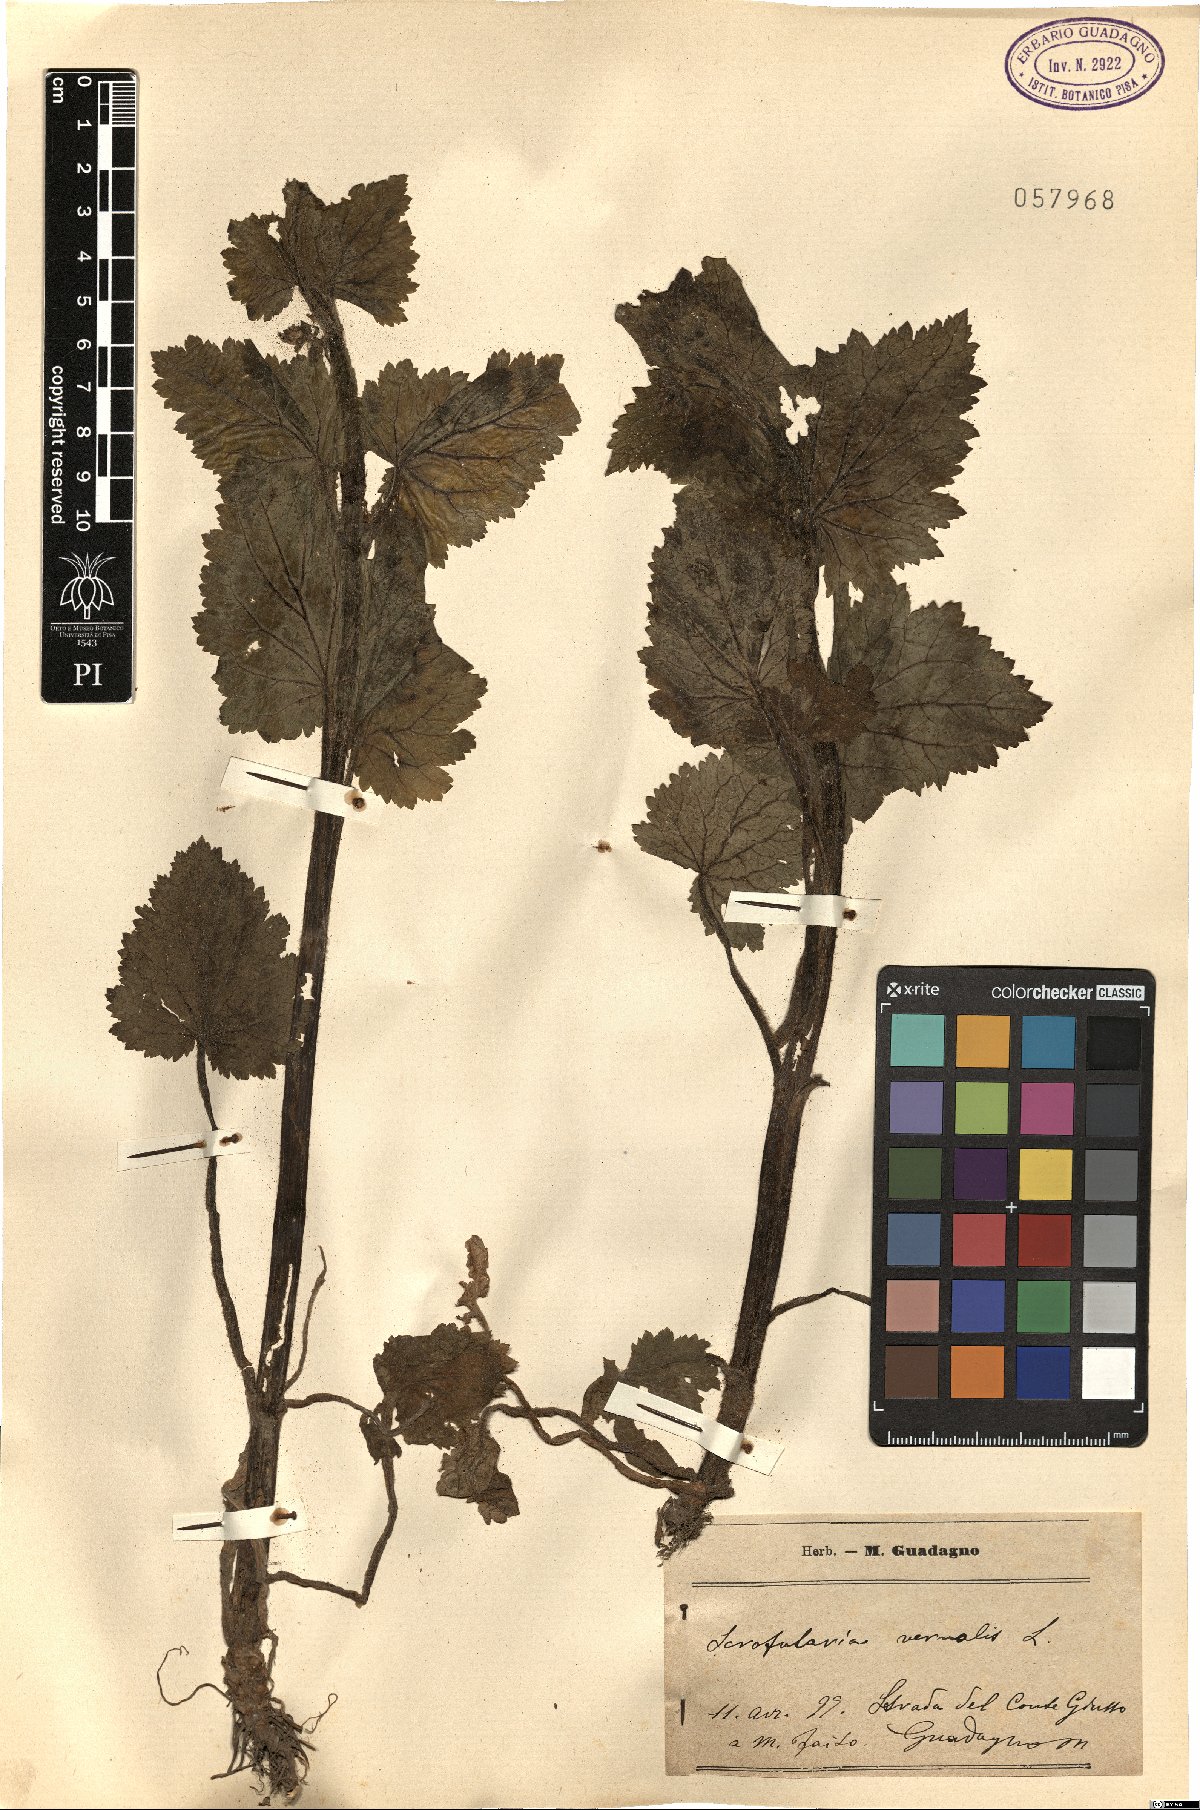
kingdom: Plantae
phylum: Tracheophyta
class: Magnoliopsida
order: Lamiales
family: Scrophulariaceae
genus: Scrophularia
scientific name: Scrophularia vernalis
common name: Yellow figwort
